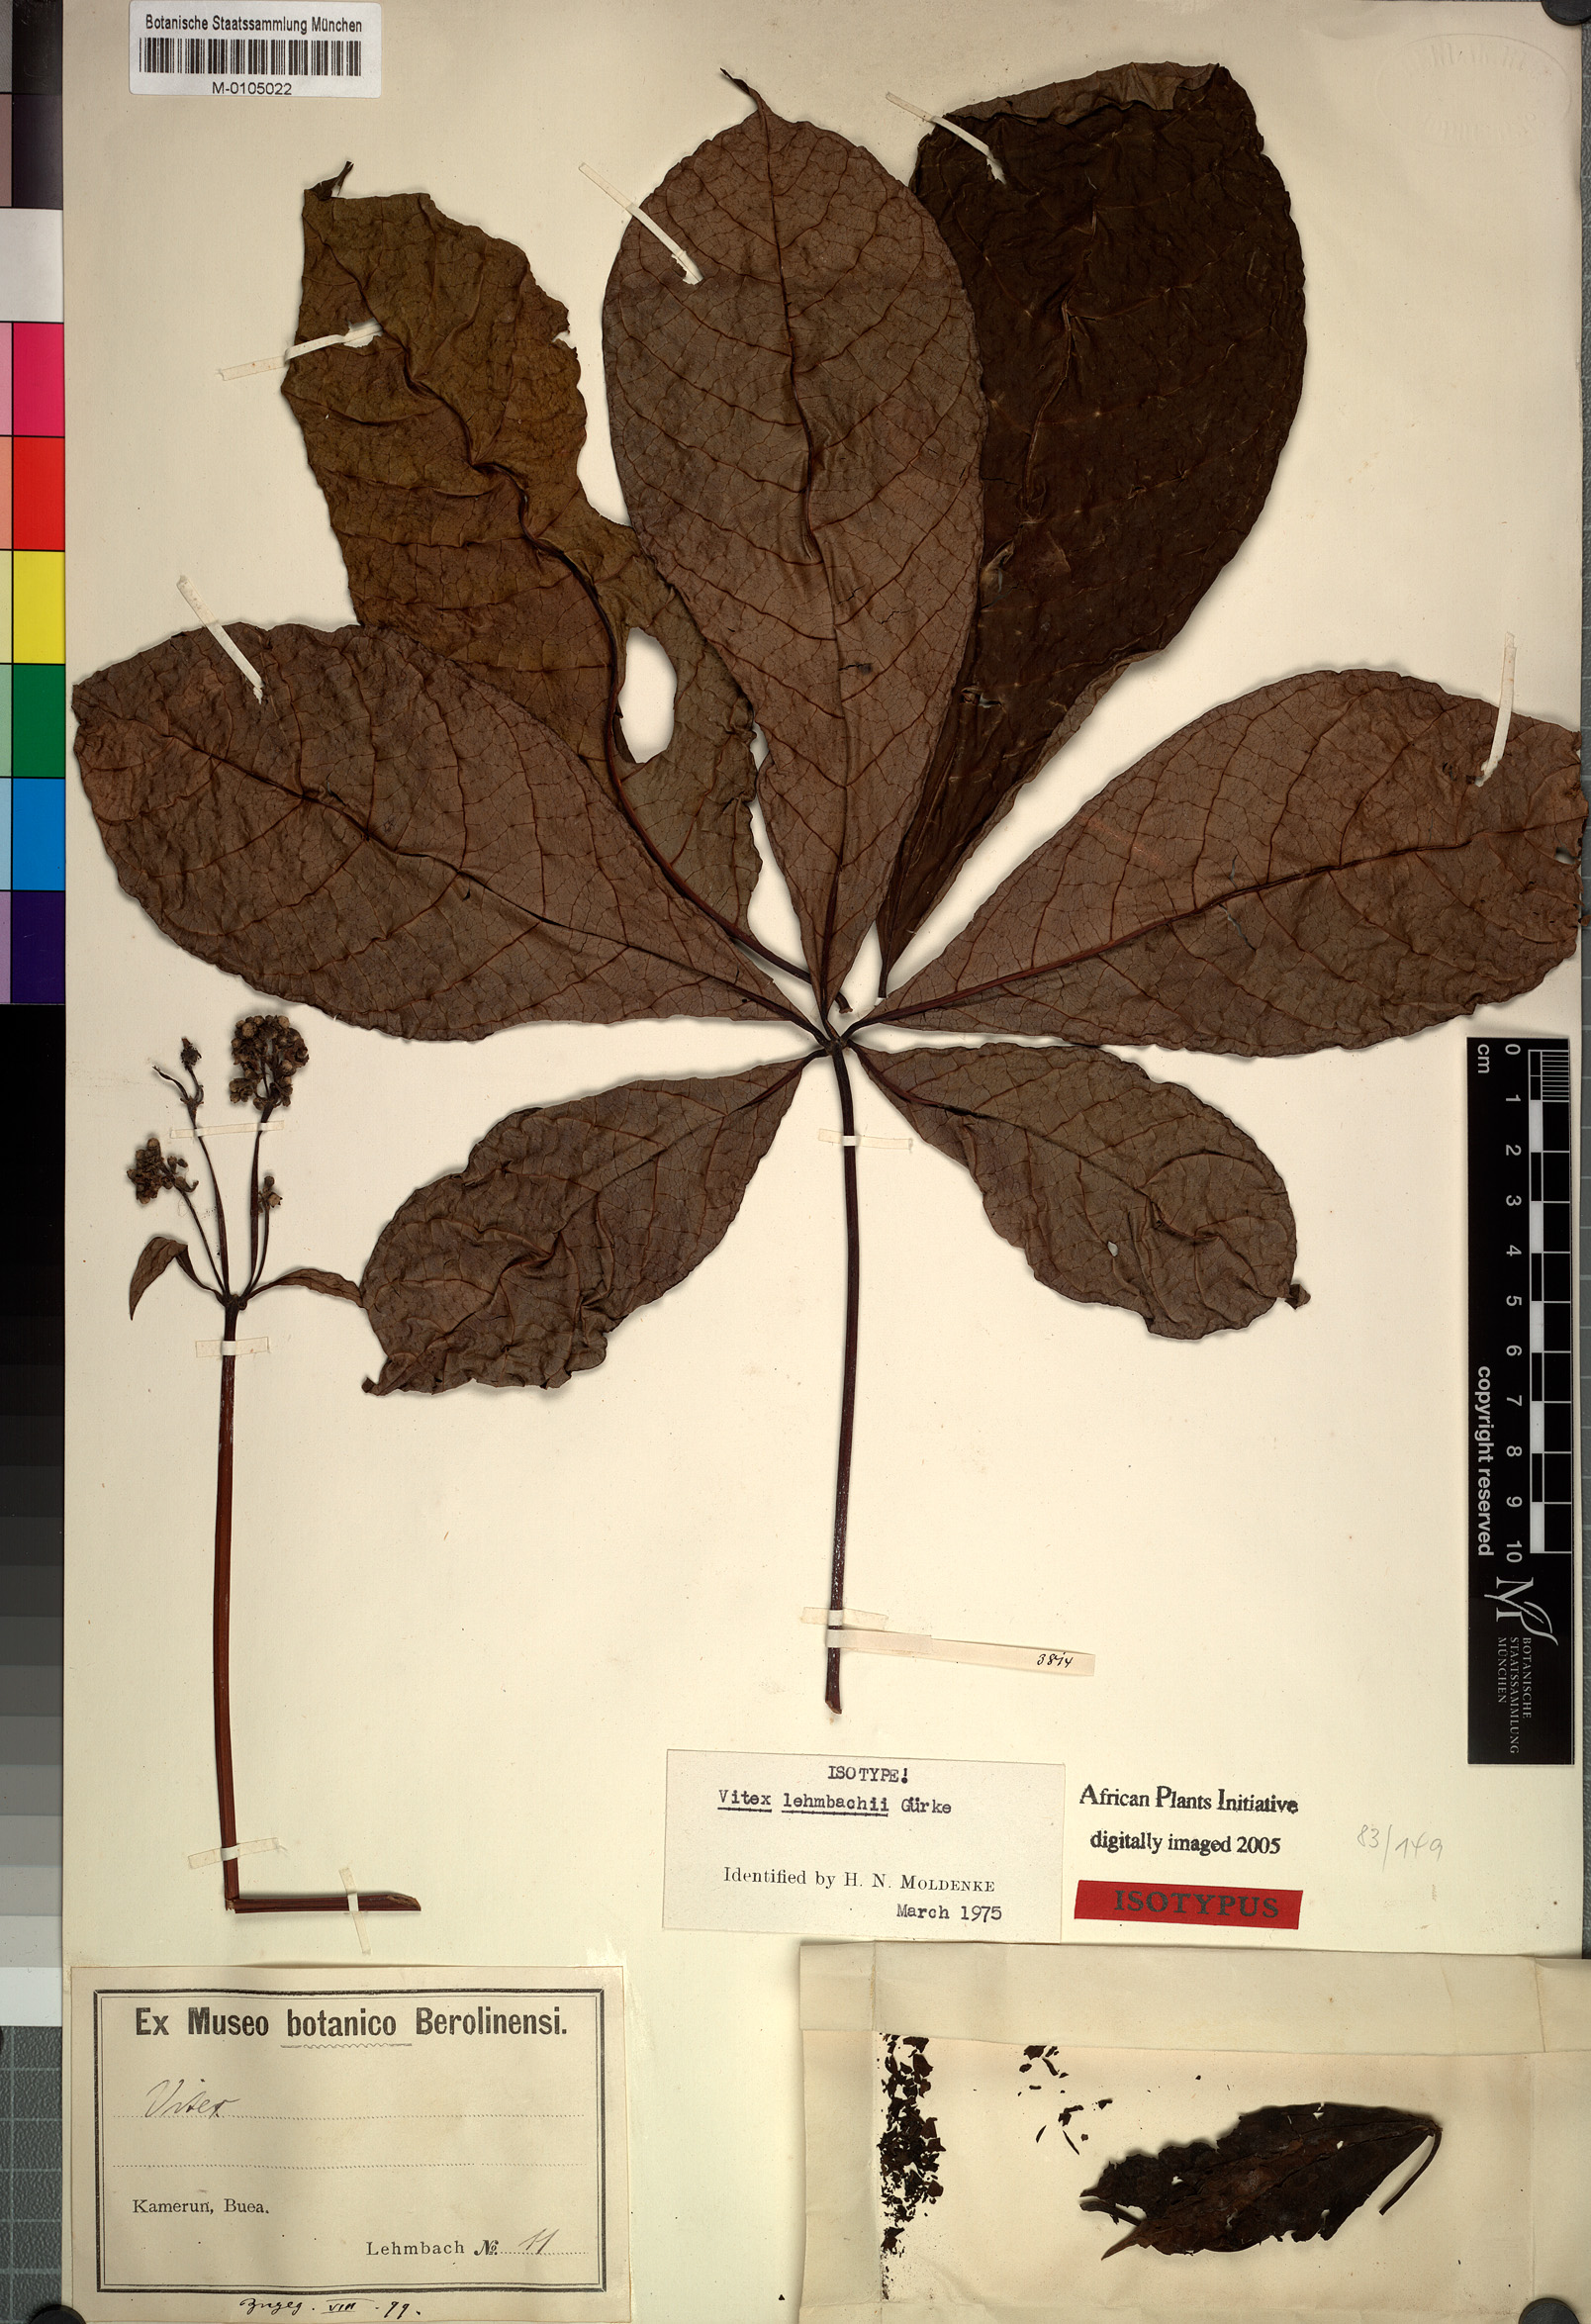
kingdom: Plantae
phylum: Tracheophyta
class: Magnoliopsida
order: Lamiales
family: Lamiaceae
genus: Vitex
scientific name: Vitex zenkeri
